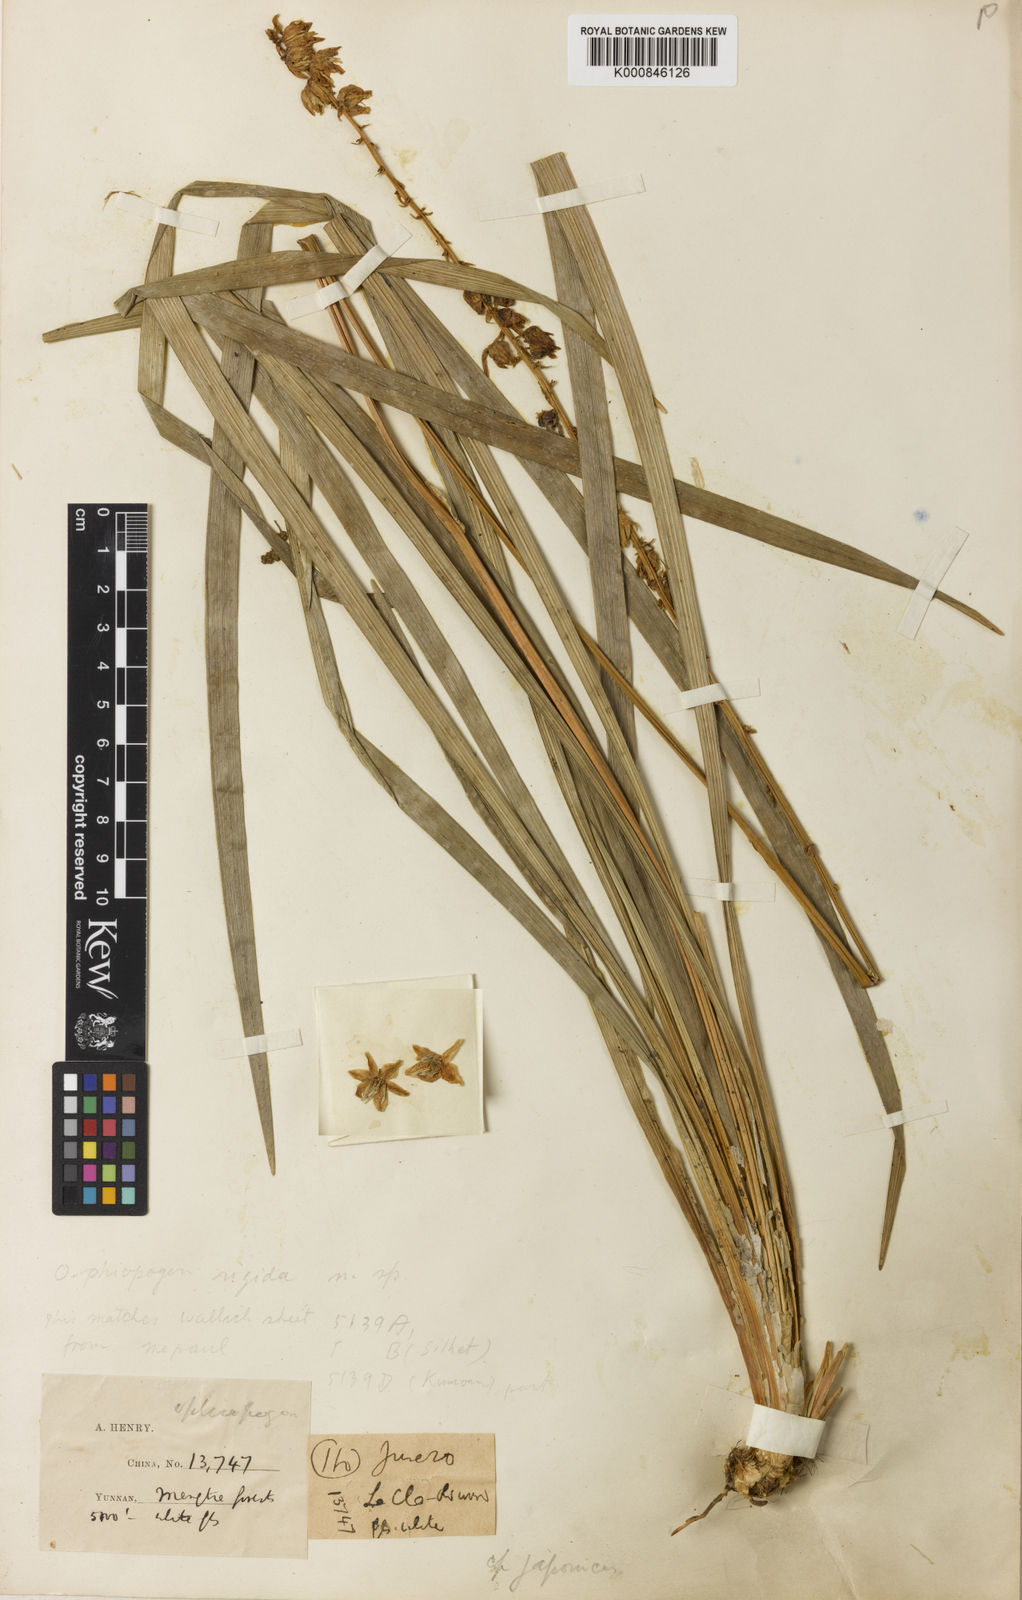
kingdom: Plantae
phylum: Tracheophyta
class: Liliopsida
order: Asparagales
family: Asparagaceae
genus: Ophiopogon
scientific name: Ophiopogon
